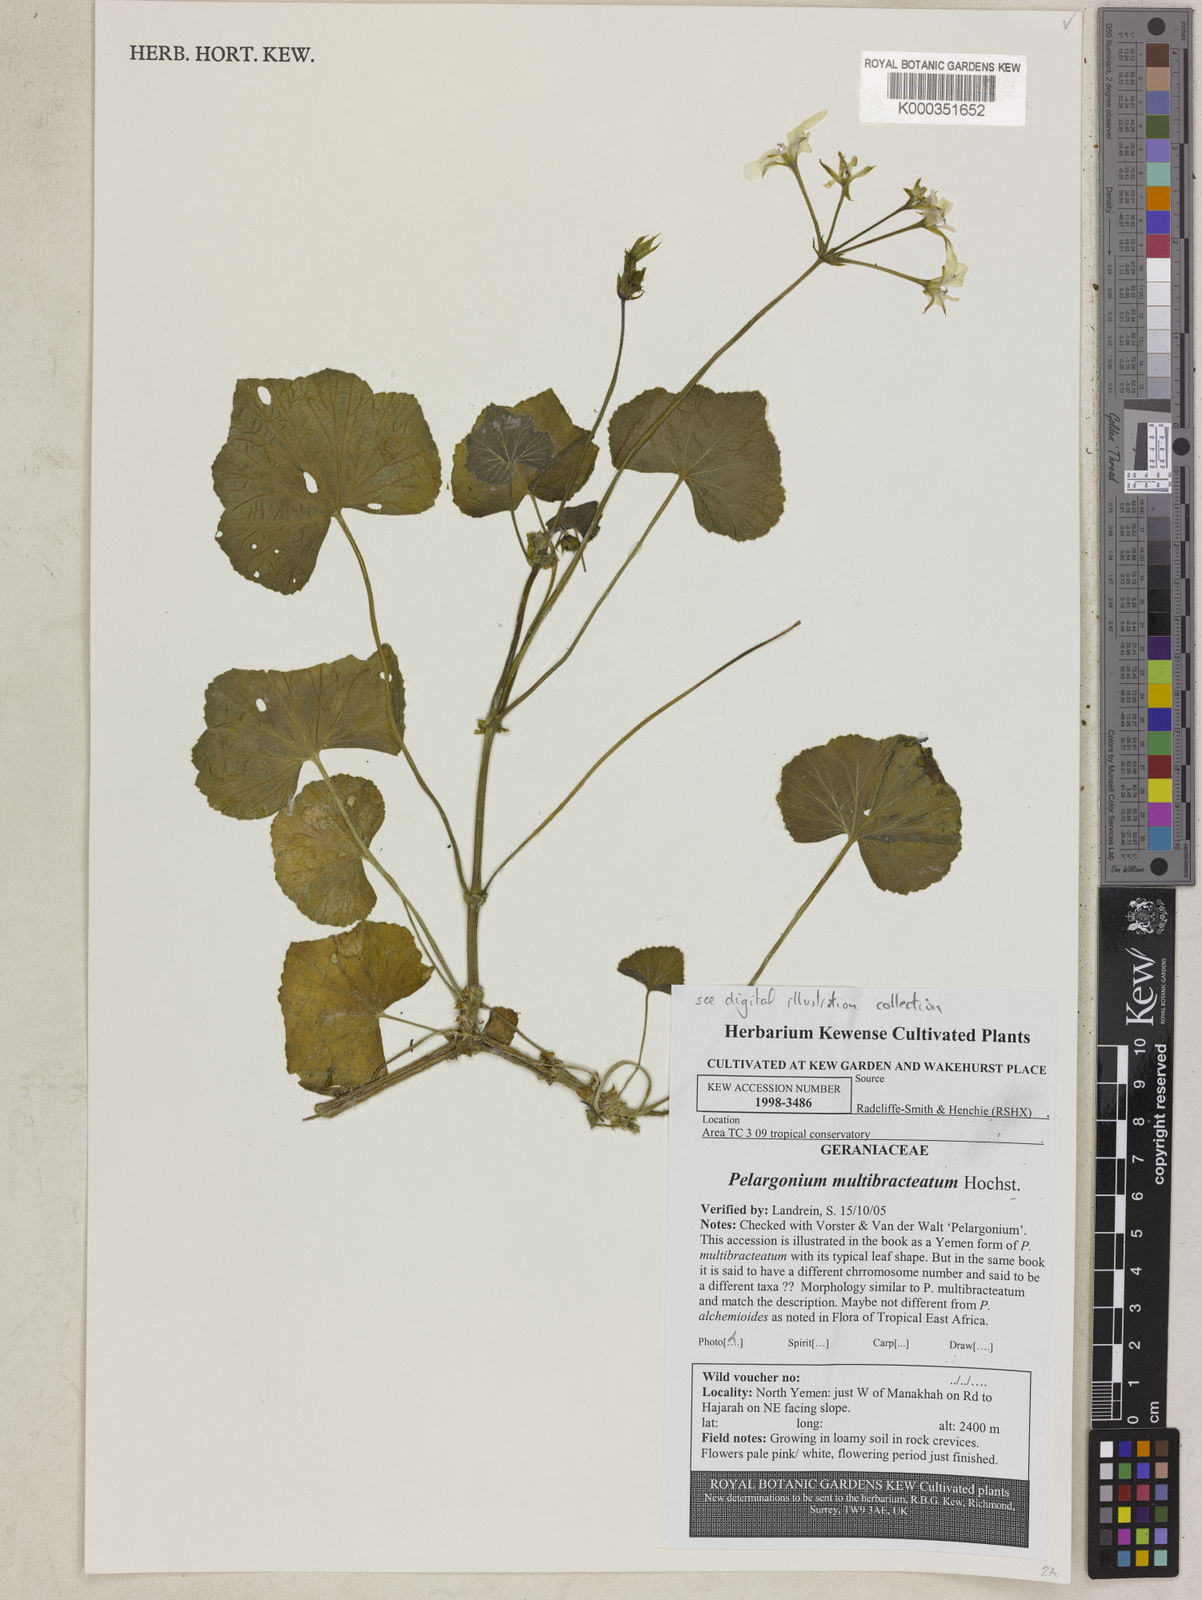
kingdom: Plantae
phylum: Tracheophyta
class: Magnoliopsida
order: Geraniales
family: Geraniaceae
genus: Pelargonium
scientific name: Pelargonium
